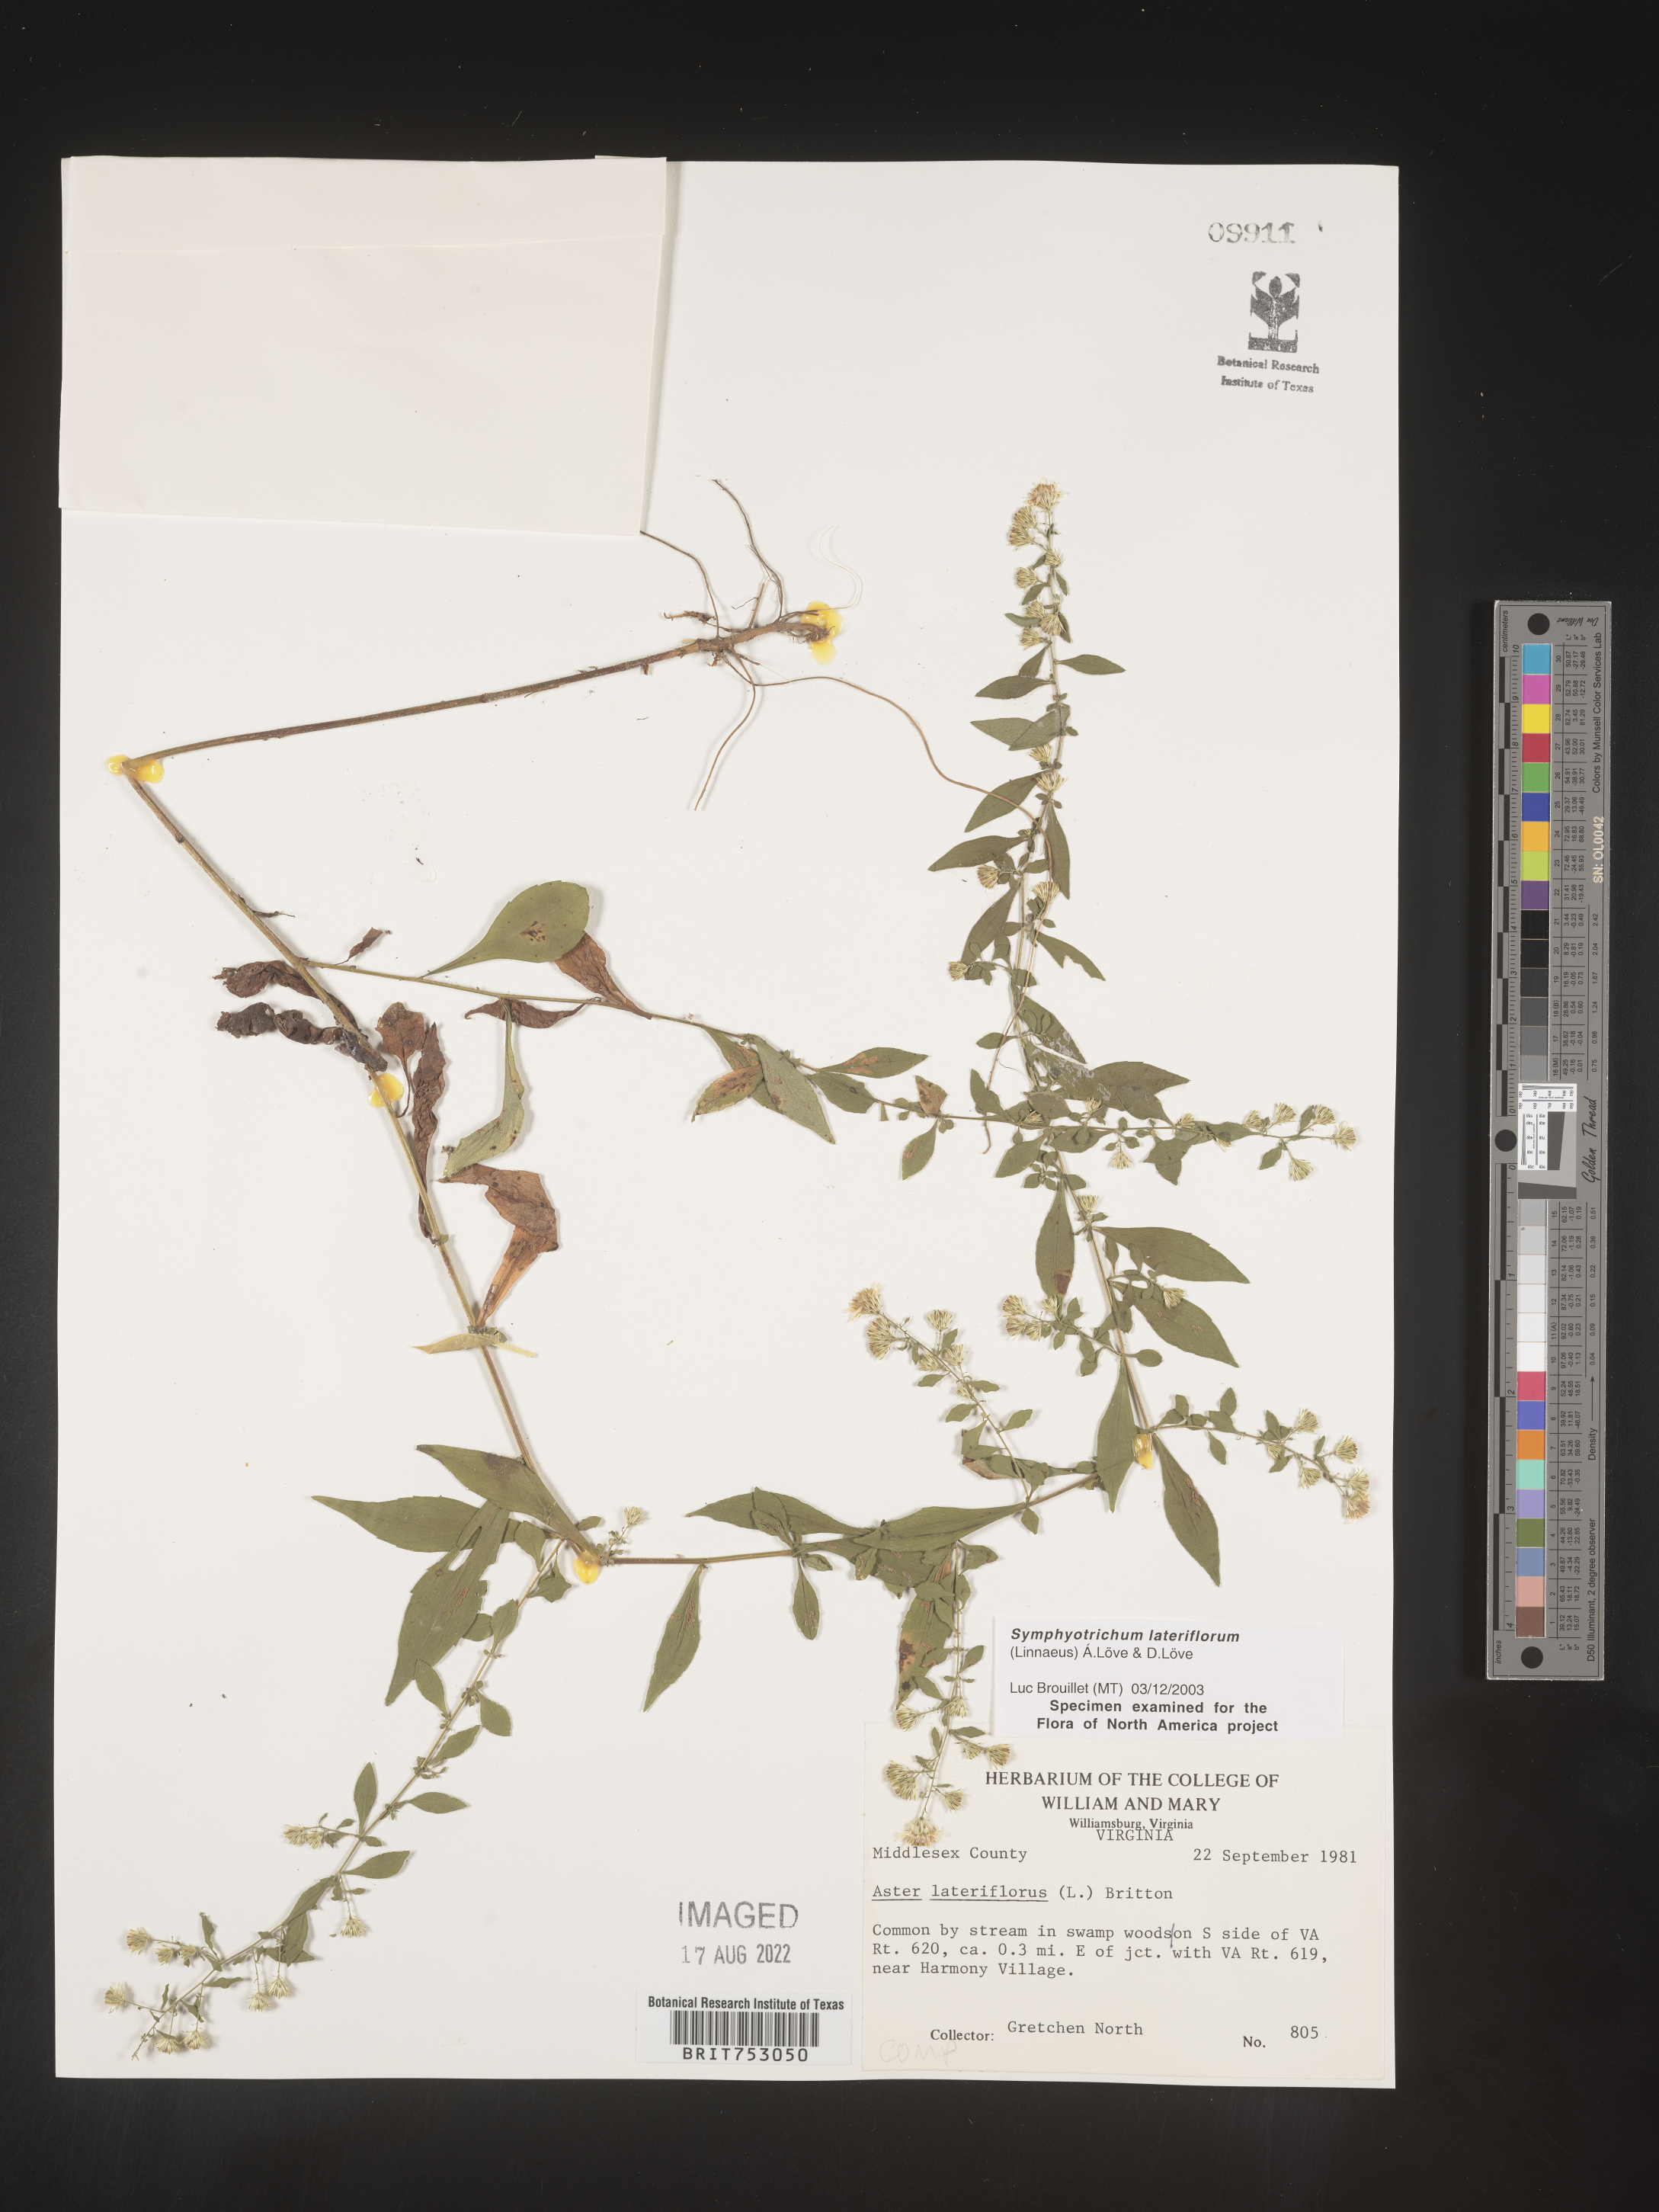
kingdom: Plantae
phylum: Tracheophyta
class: Magnoliopsida
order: Asterales
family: Asteraceae
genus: Symphyotrichum
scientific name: Symphyotrichum lateriflorum
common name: Calico aster
